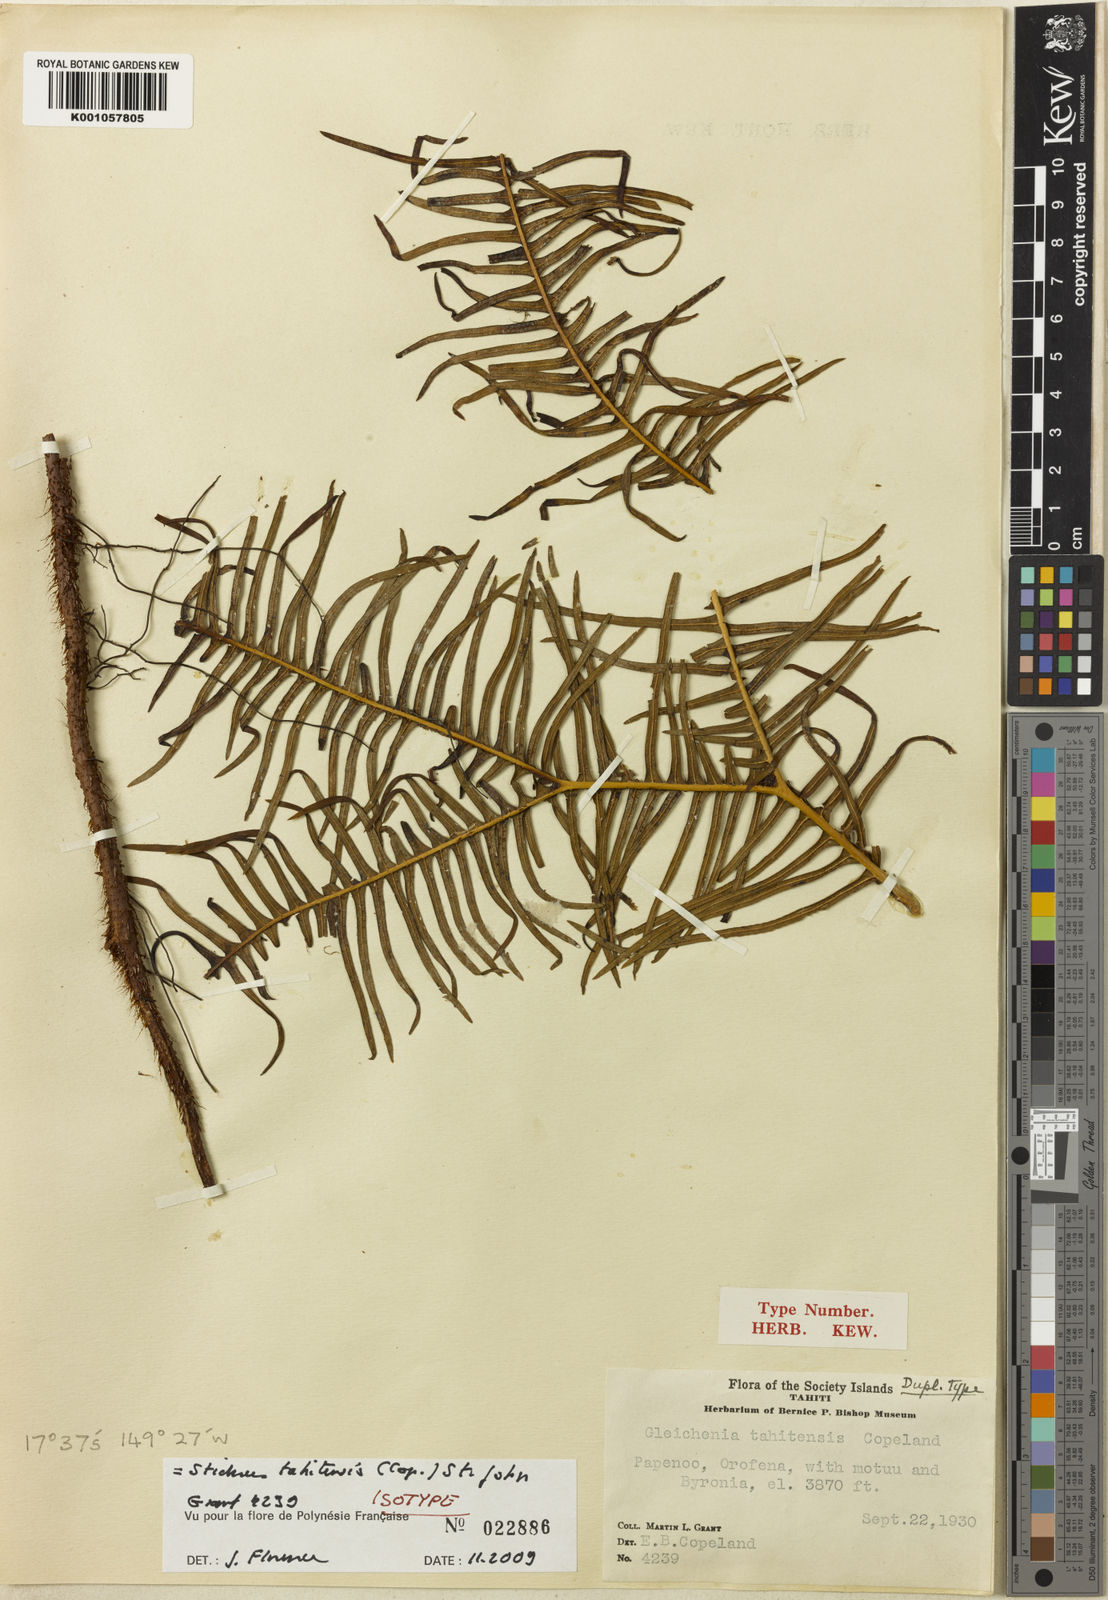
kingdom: Plantae
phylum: Tracheophyta
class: Polypodiopsida
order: Gleicheniales
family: Gleicheniaceae
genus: Sticherus
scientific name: Sticherus tahitensis
